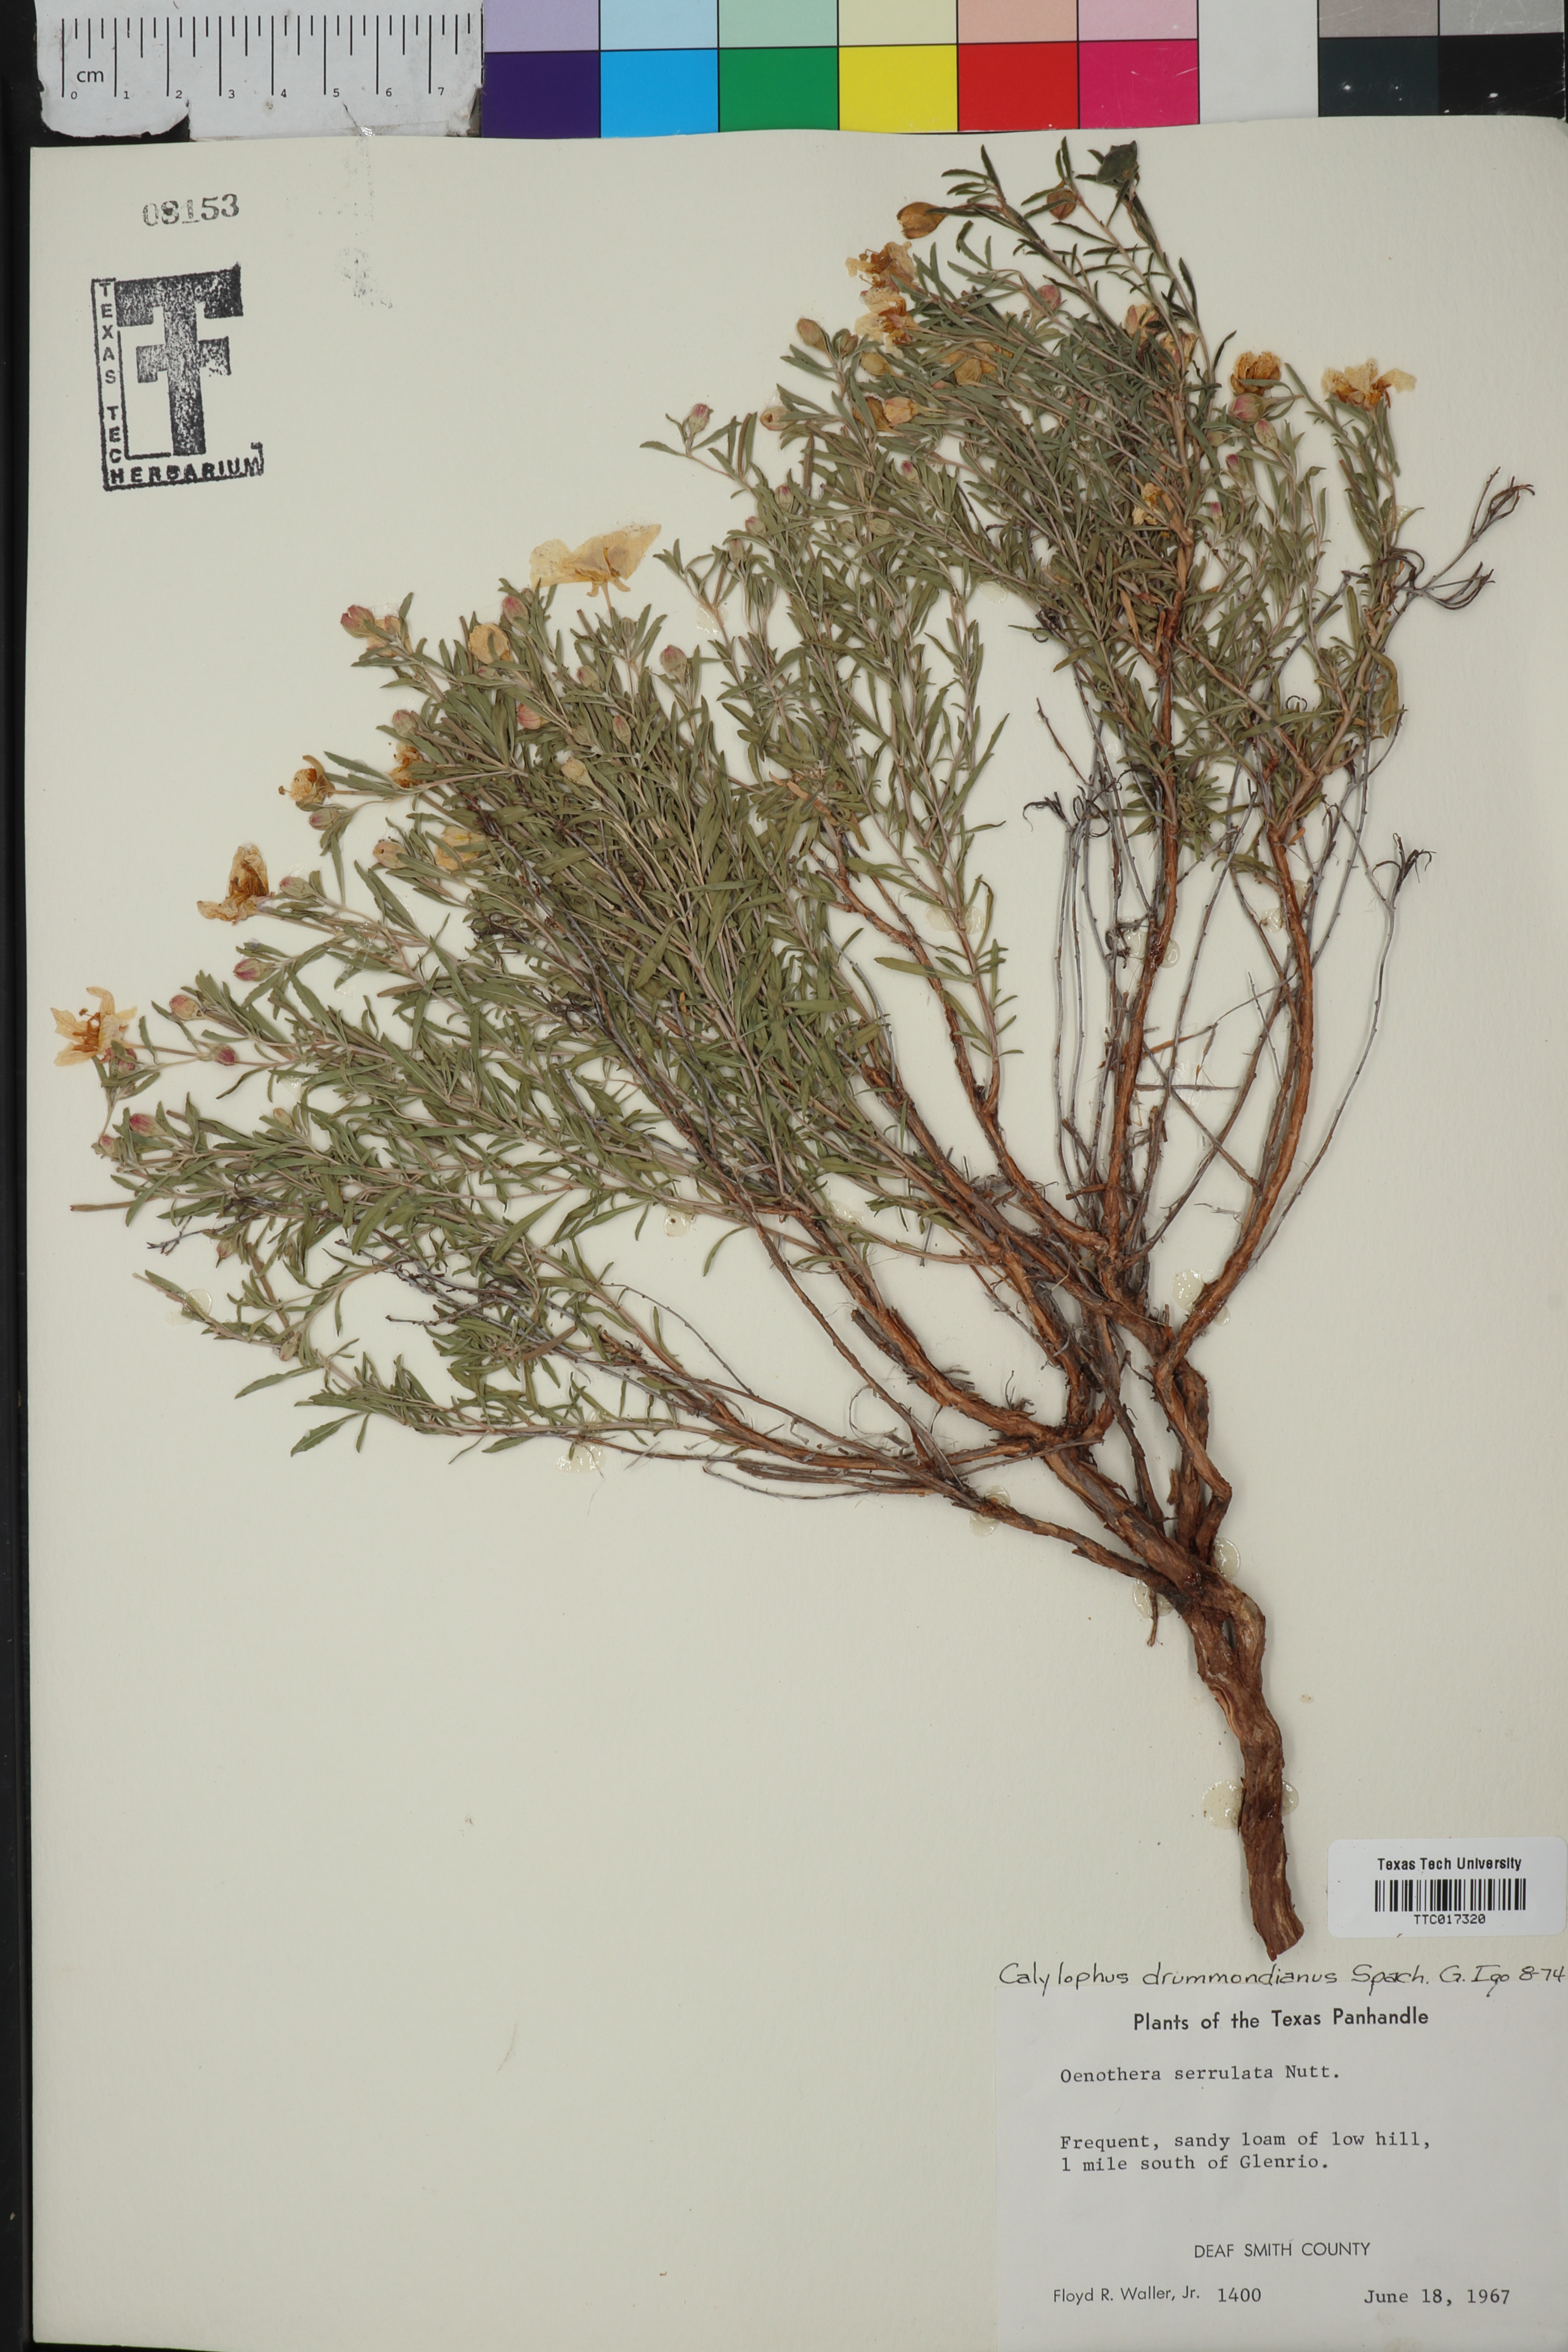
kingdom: Plantae
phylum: Tracheophyta
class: Magnoliopsida
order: Myrtales
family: Onagraceae
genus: Oenothera
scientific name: Oenothera serrulata
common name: Half-shrub calylophus
